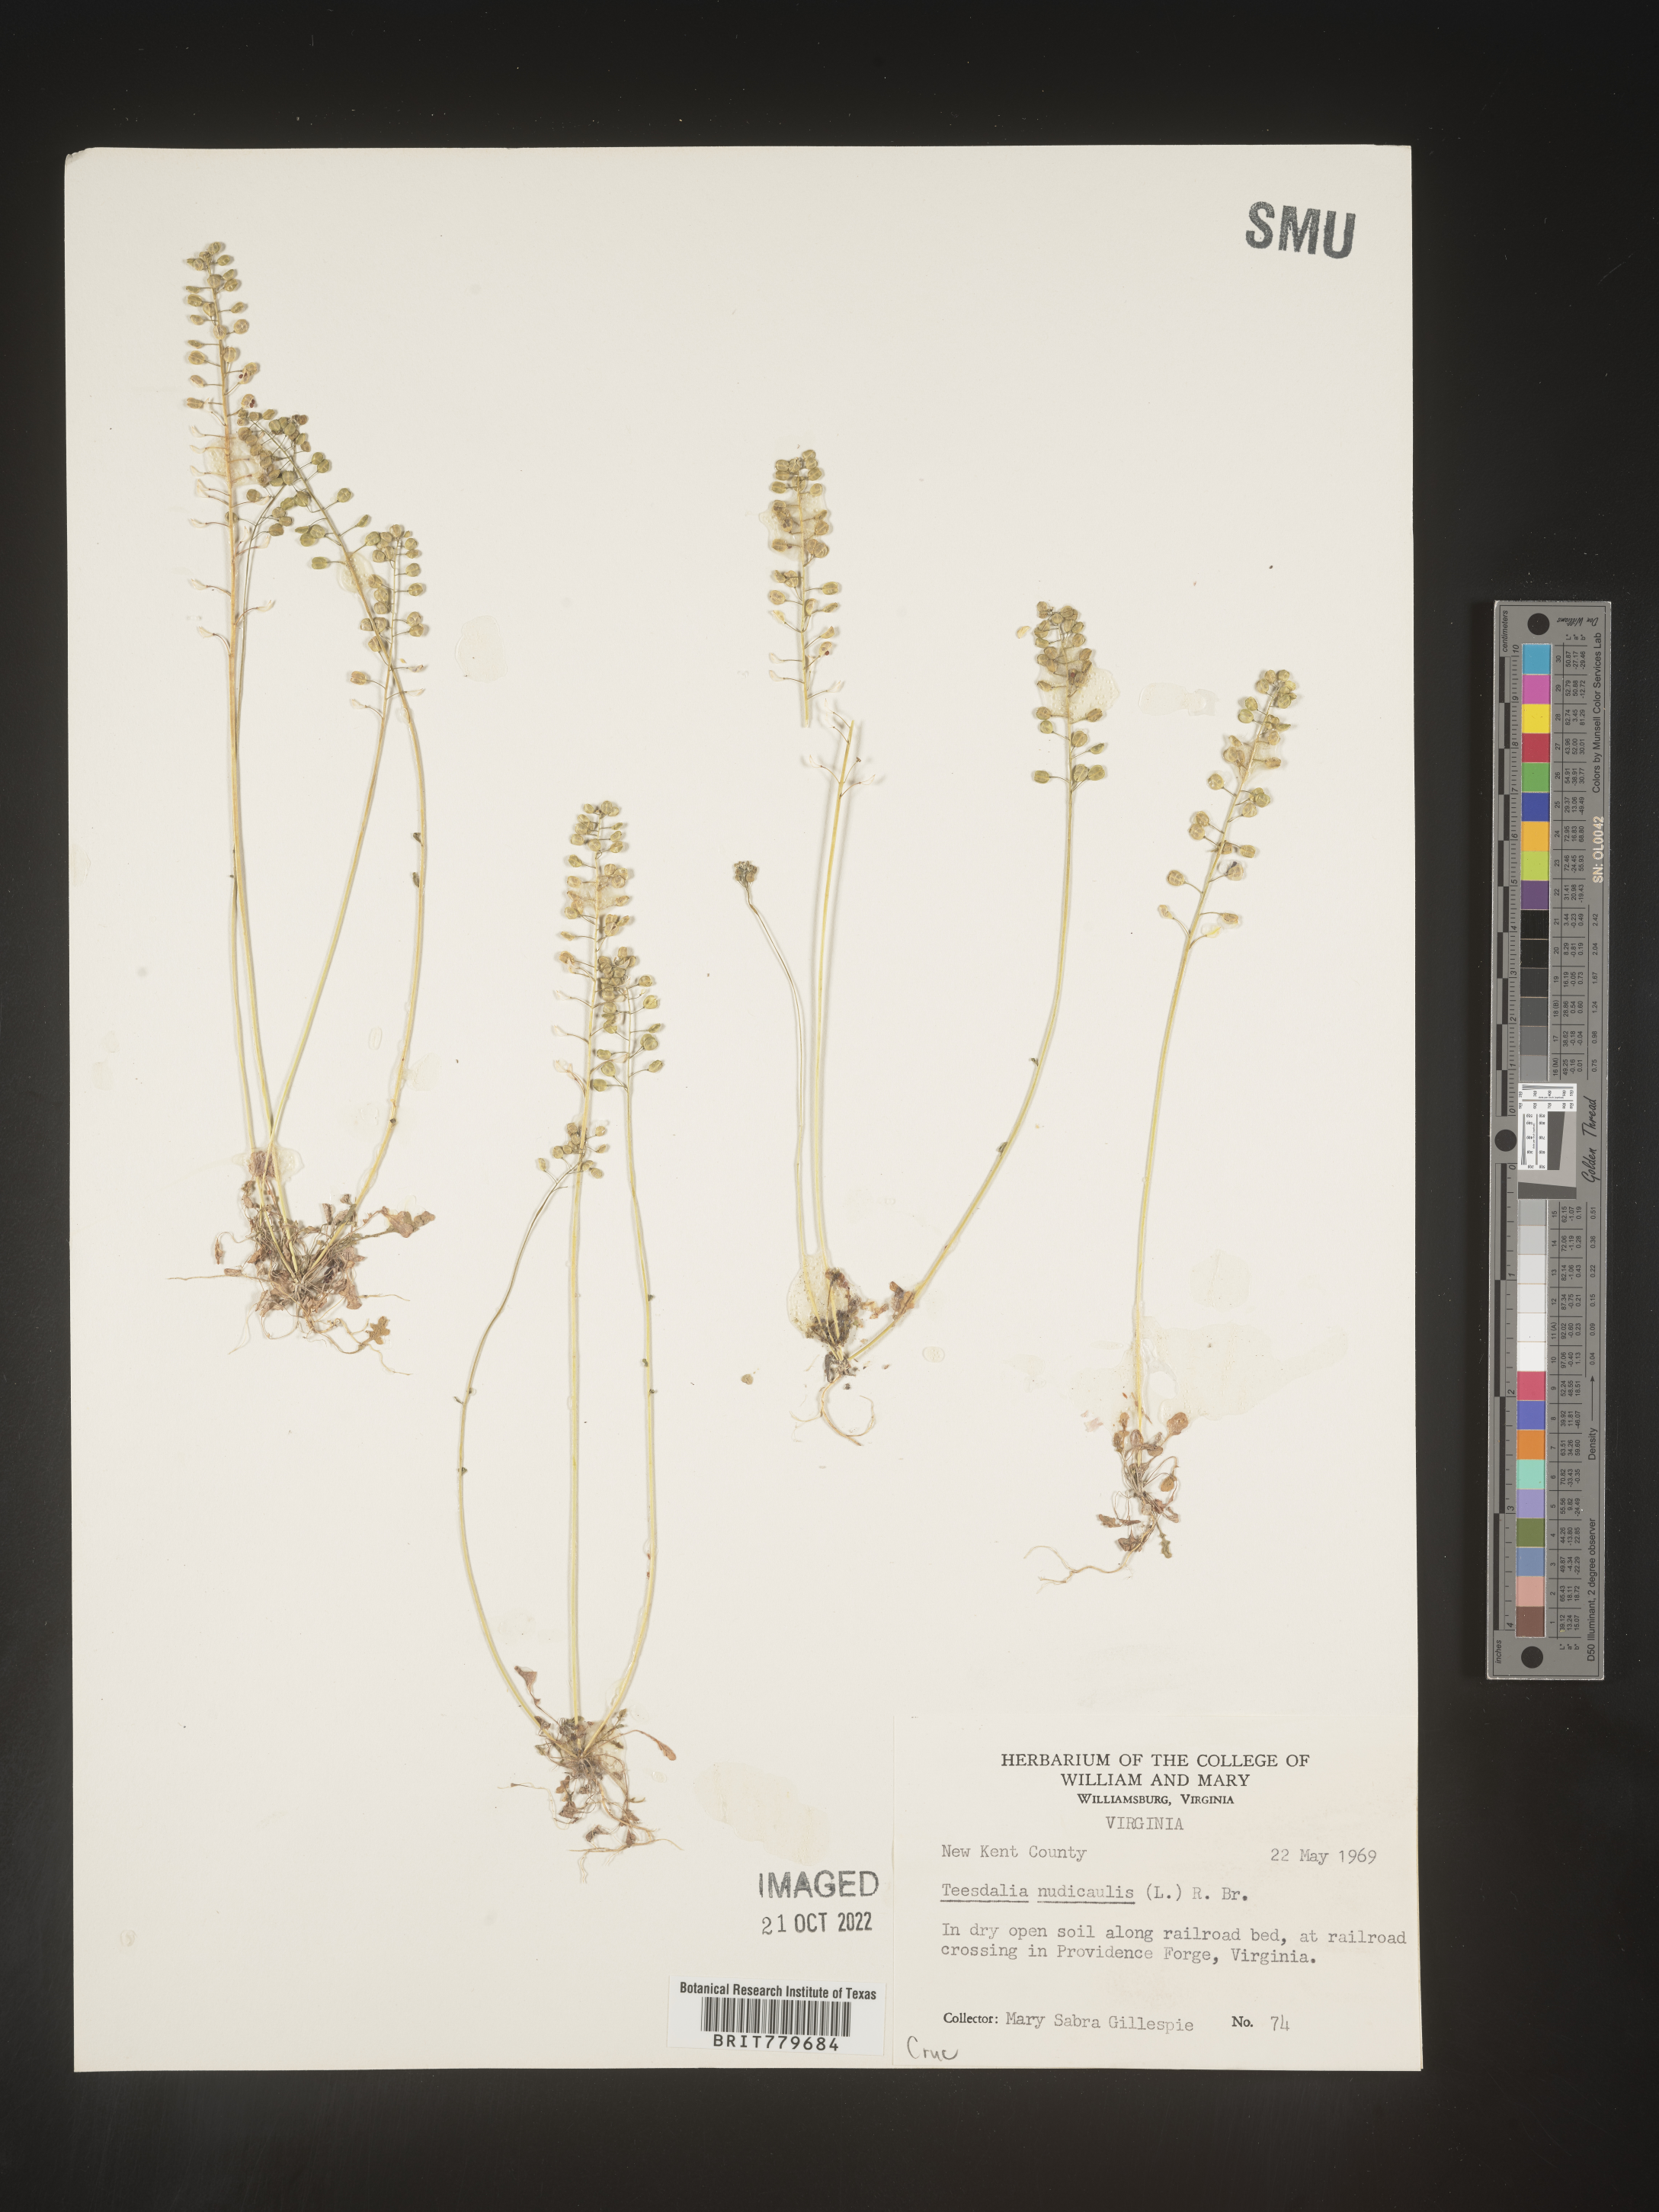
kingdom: Plantae
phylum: Tracheophyta
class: Magnoliopsida
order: Brassicales
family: Brassicaceae
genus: Teesdalia
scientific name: Teesdalia
